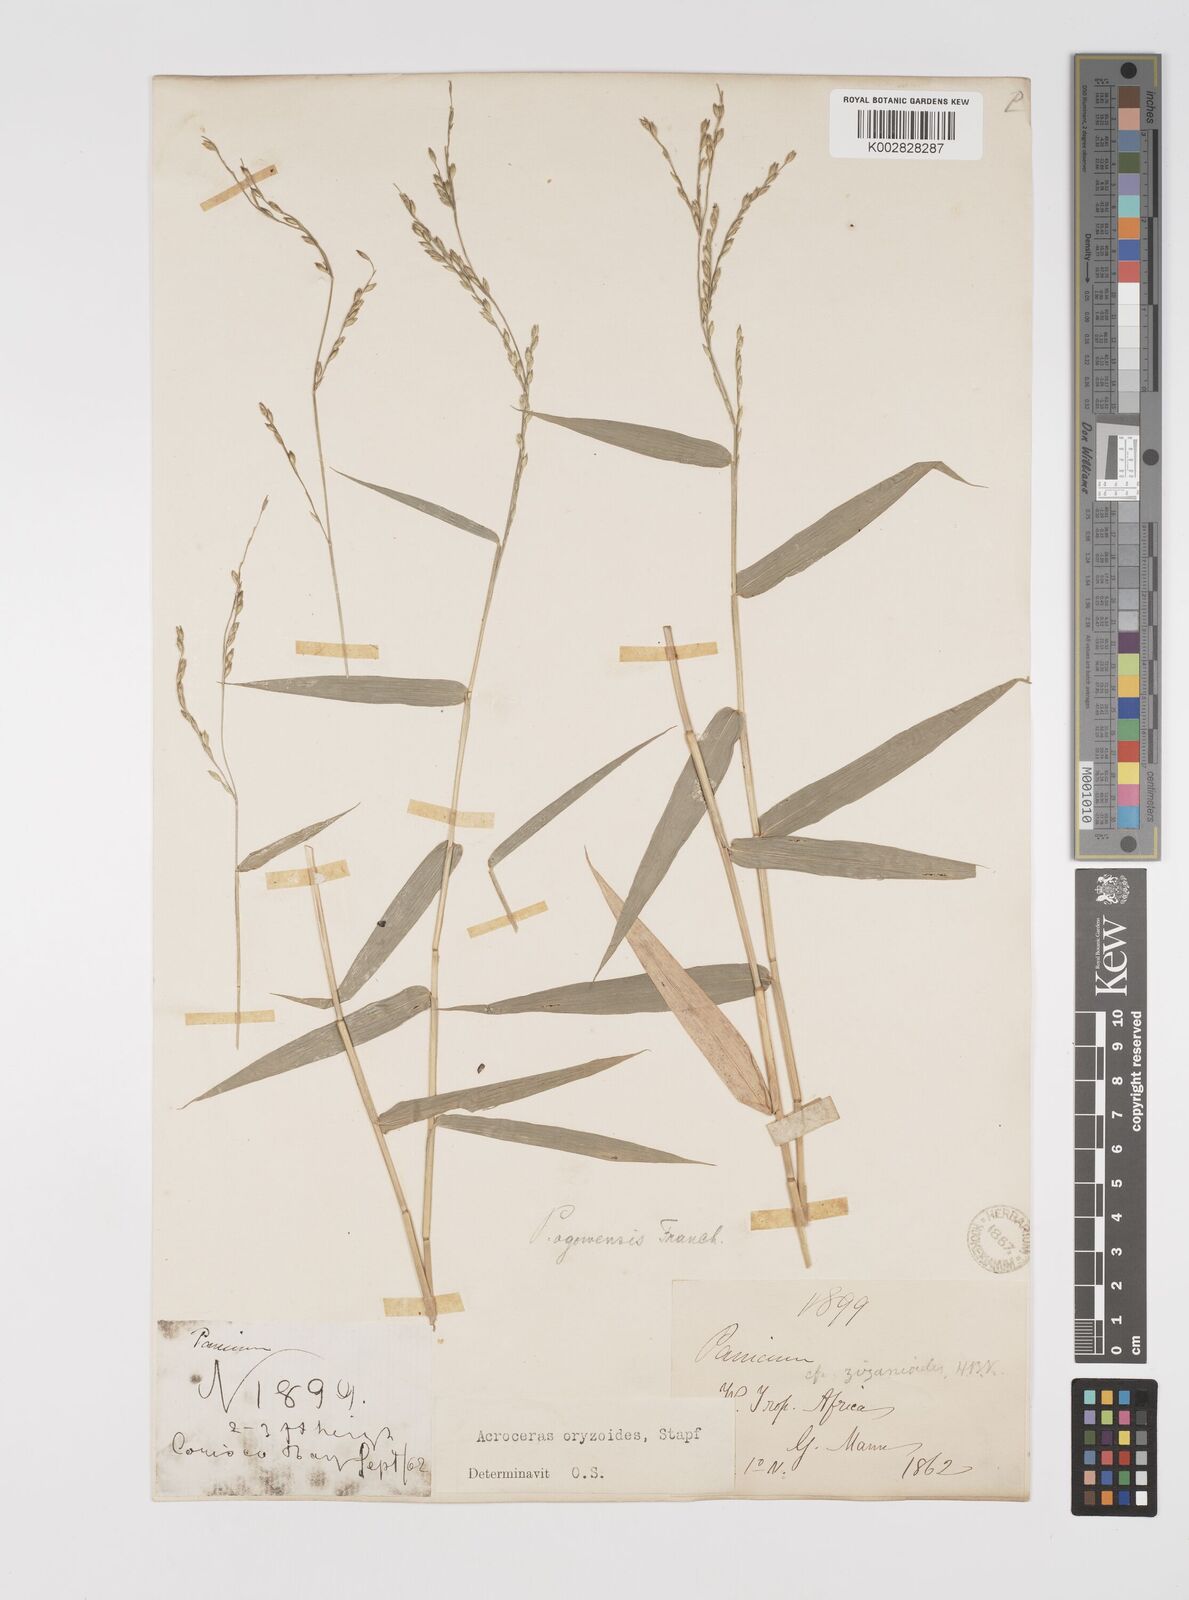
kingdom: Plantae
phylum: Tracheophyta
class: Liliopsida
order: Poales
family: Poaceae
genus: Acroceras
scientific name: Acroceras zizanioides
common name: Oat grass
